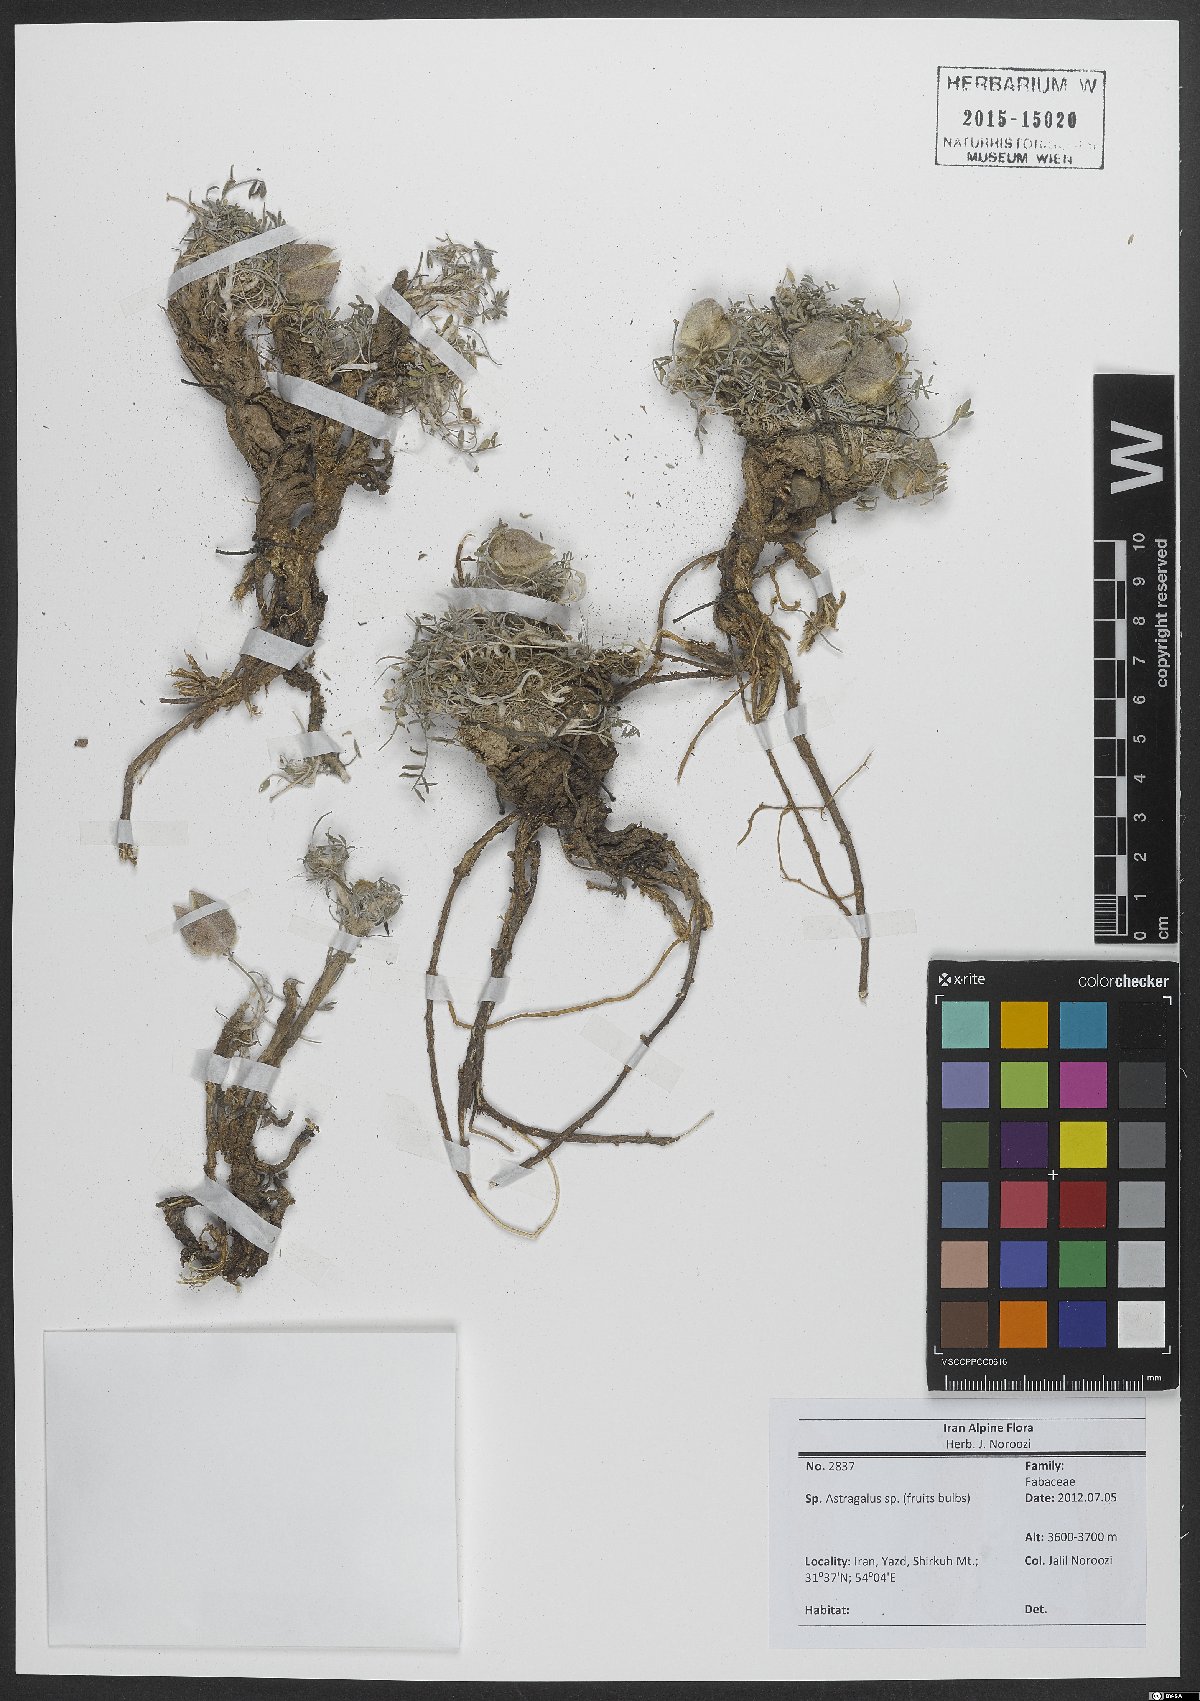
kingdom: Plantae
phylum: Tracheophyta
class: Magnoliopsida
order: Fabales
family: Fabaceae
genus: Astragalus
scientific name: Astragalus
